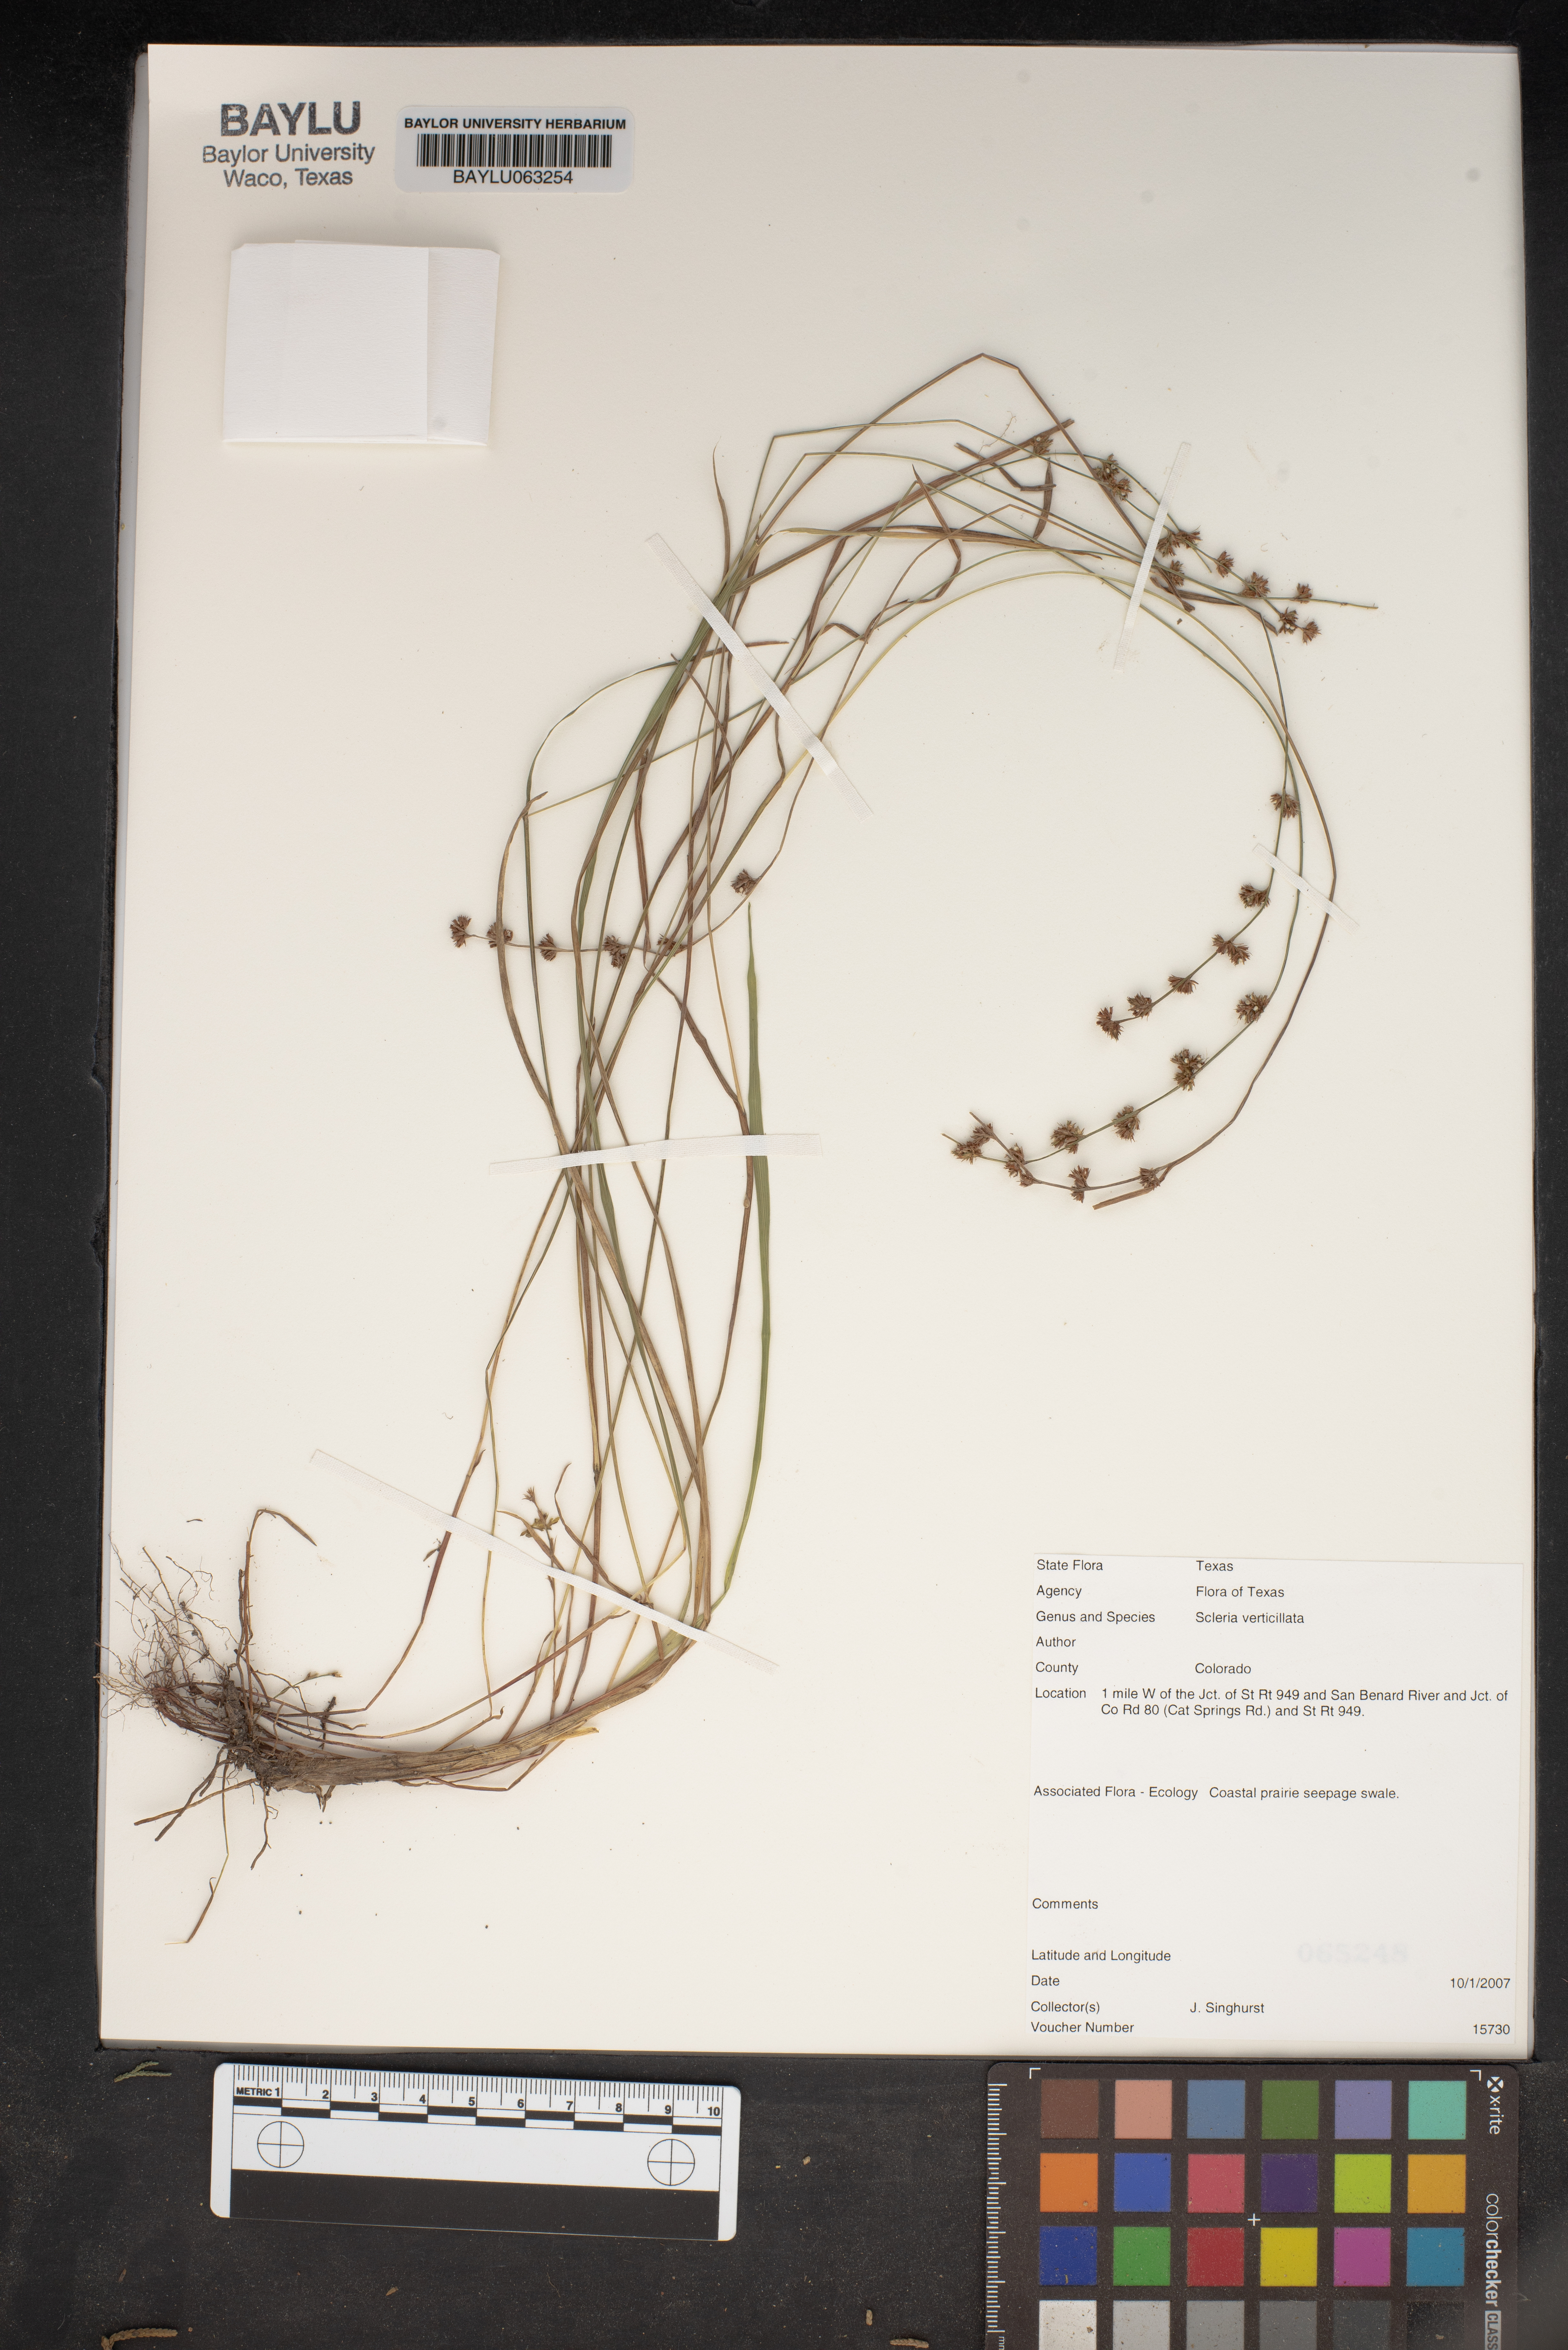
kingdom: Plantae
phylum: Tracheophyta
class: Liliopsida
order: Poales
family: Cyperaceae
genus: Scleria
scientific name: Scleria verticillata
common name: Low nutrush
